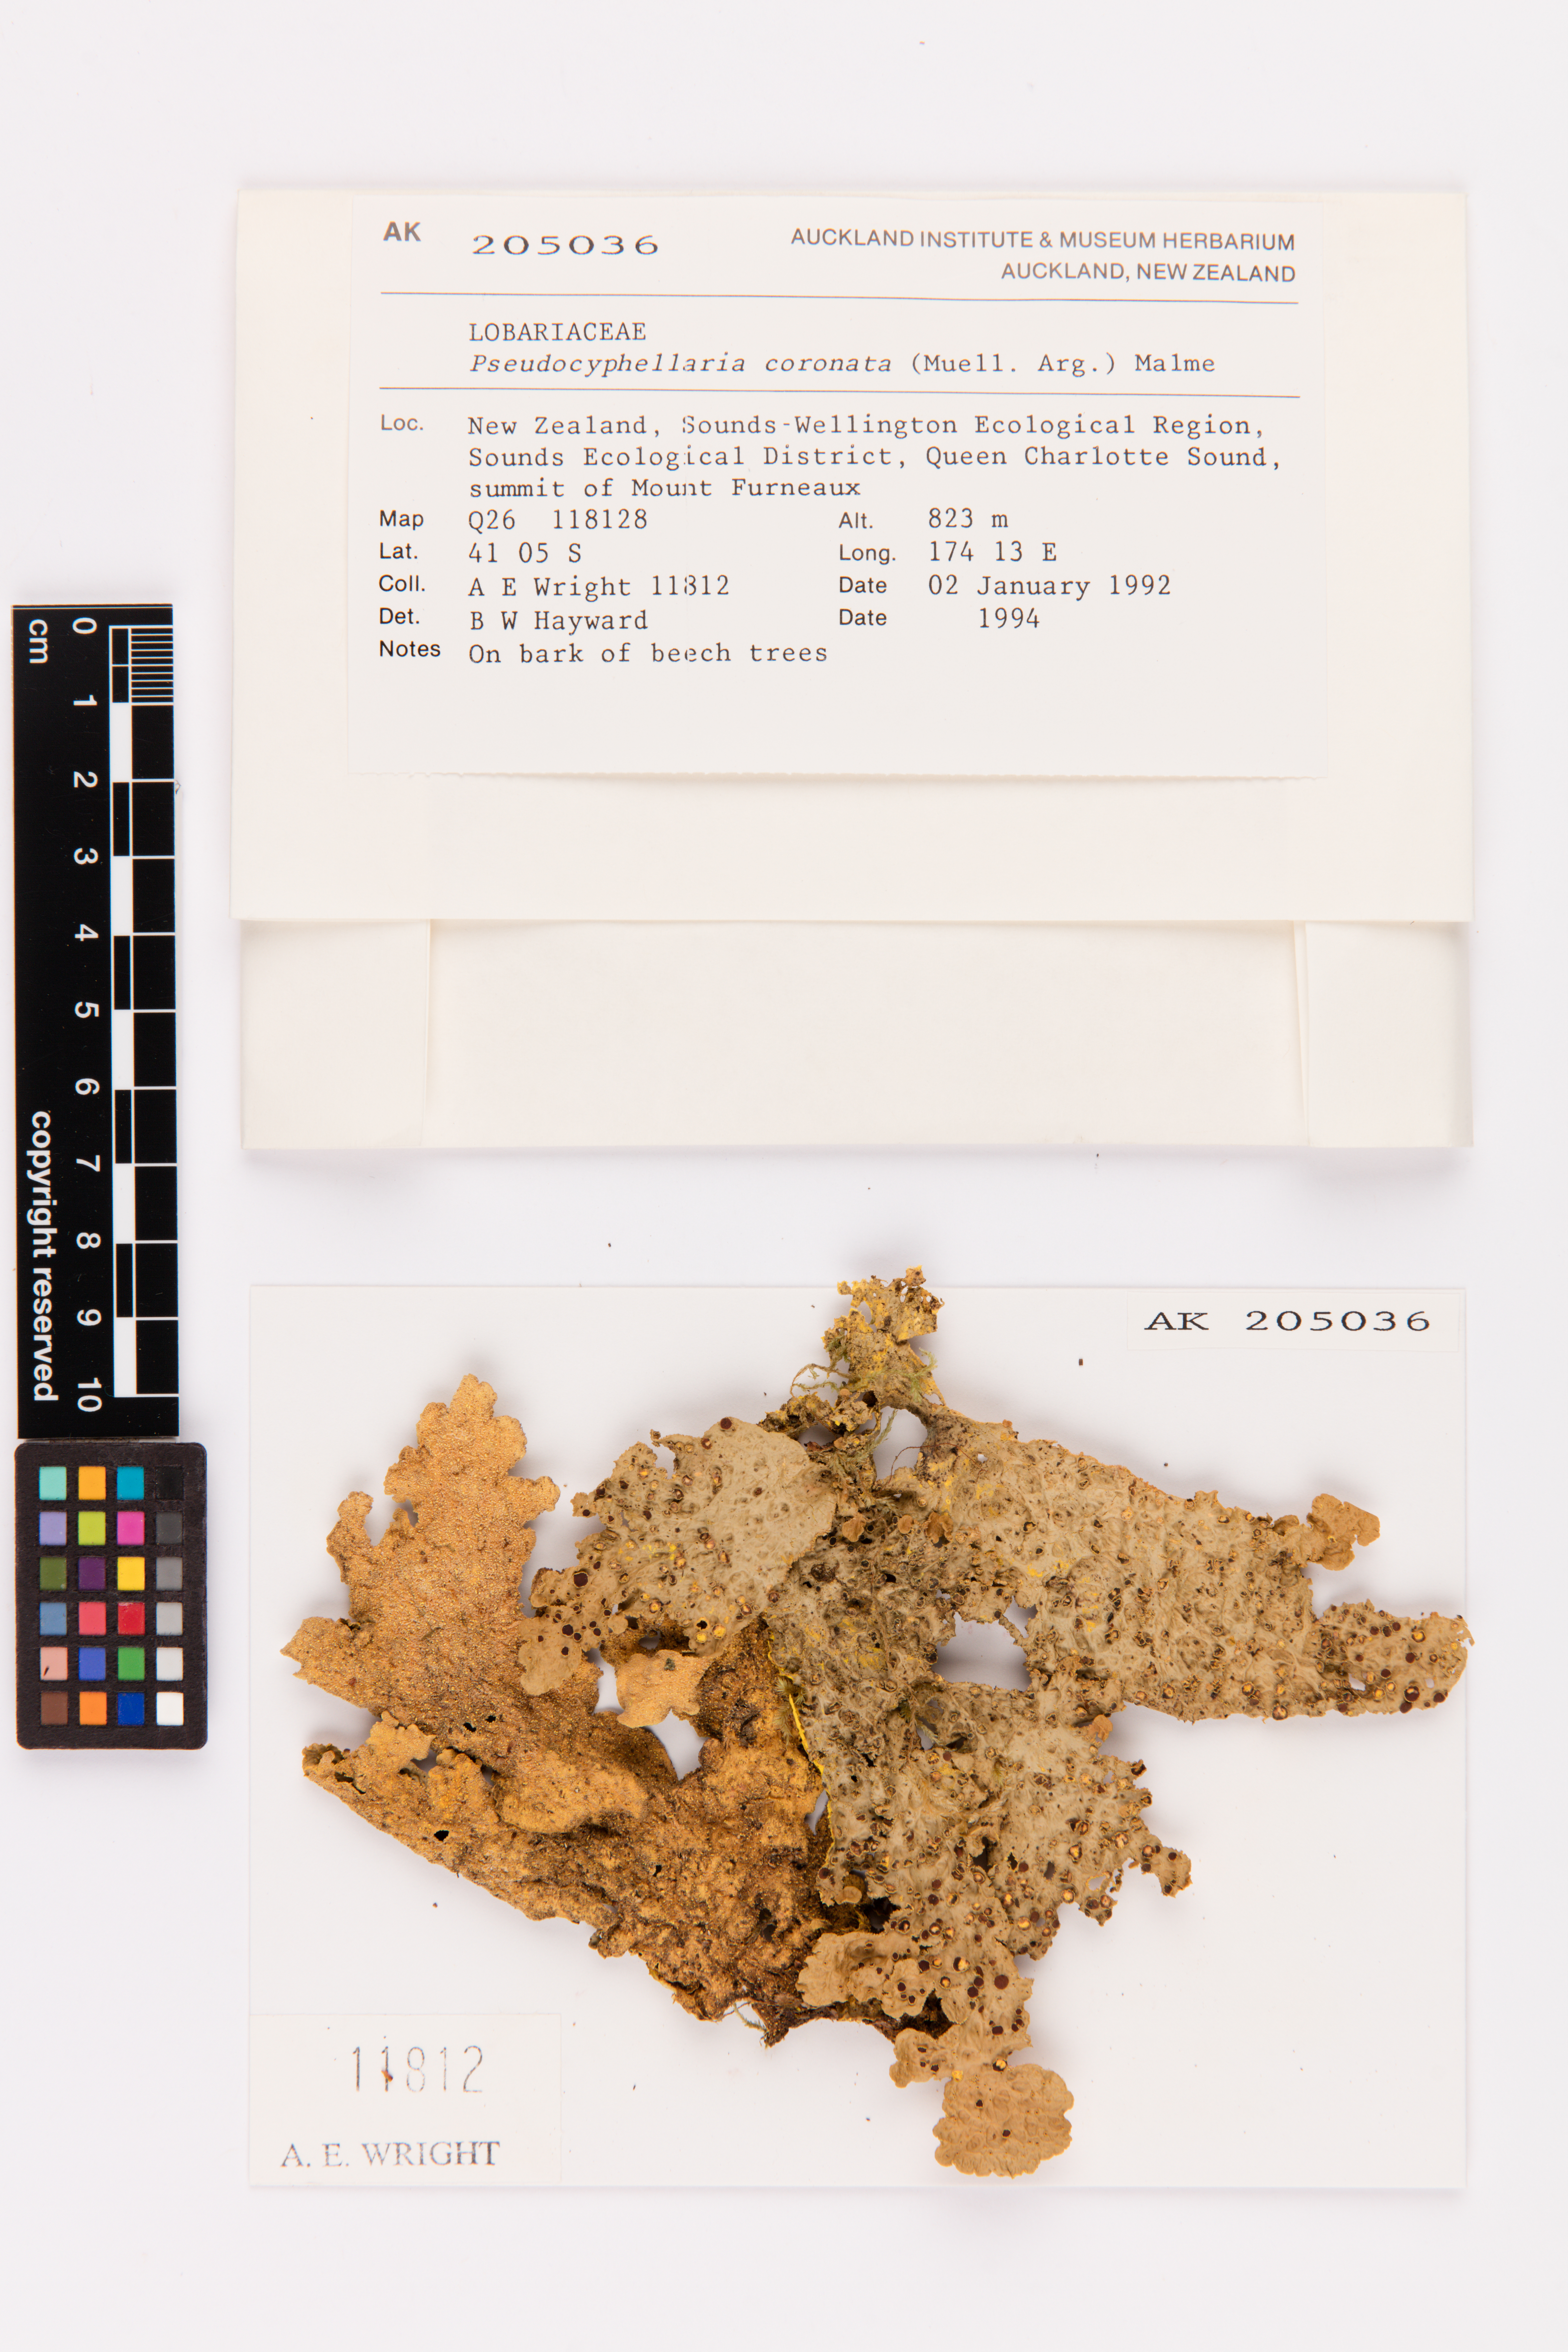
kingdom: Fungi
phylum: Ascomycota
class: Lecanoromycetes
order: Peltigerales
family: Lobariaceae
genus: Yarrumia
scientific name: Yarrumia coronata
